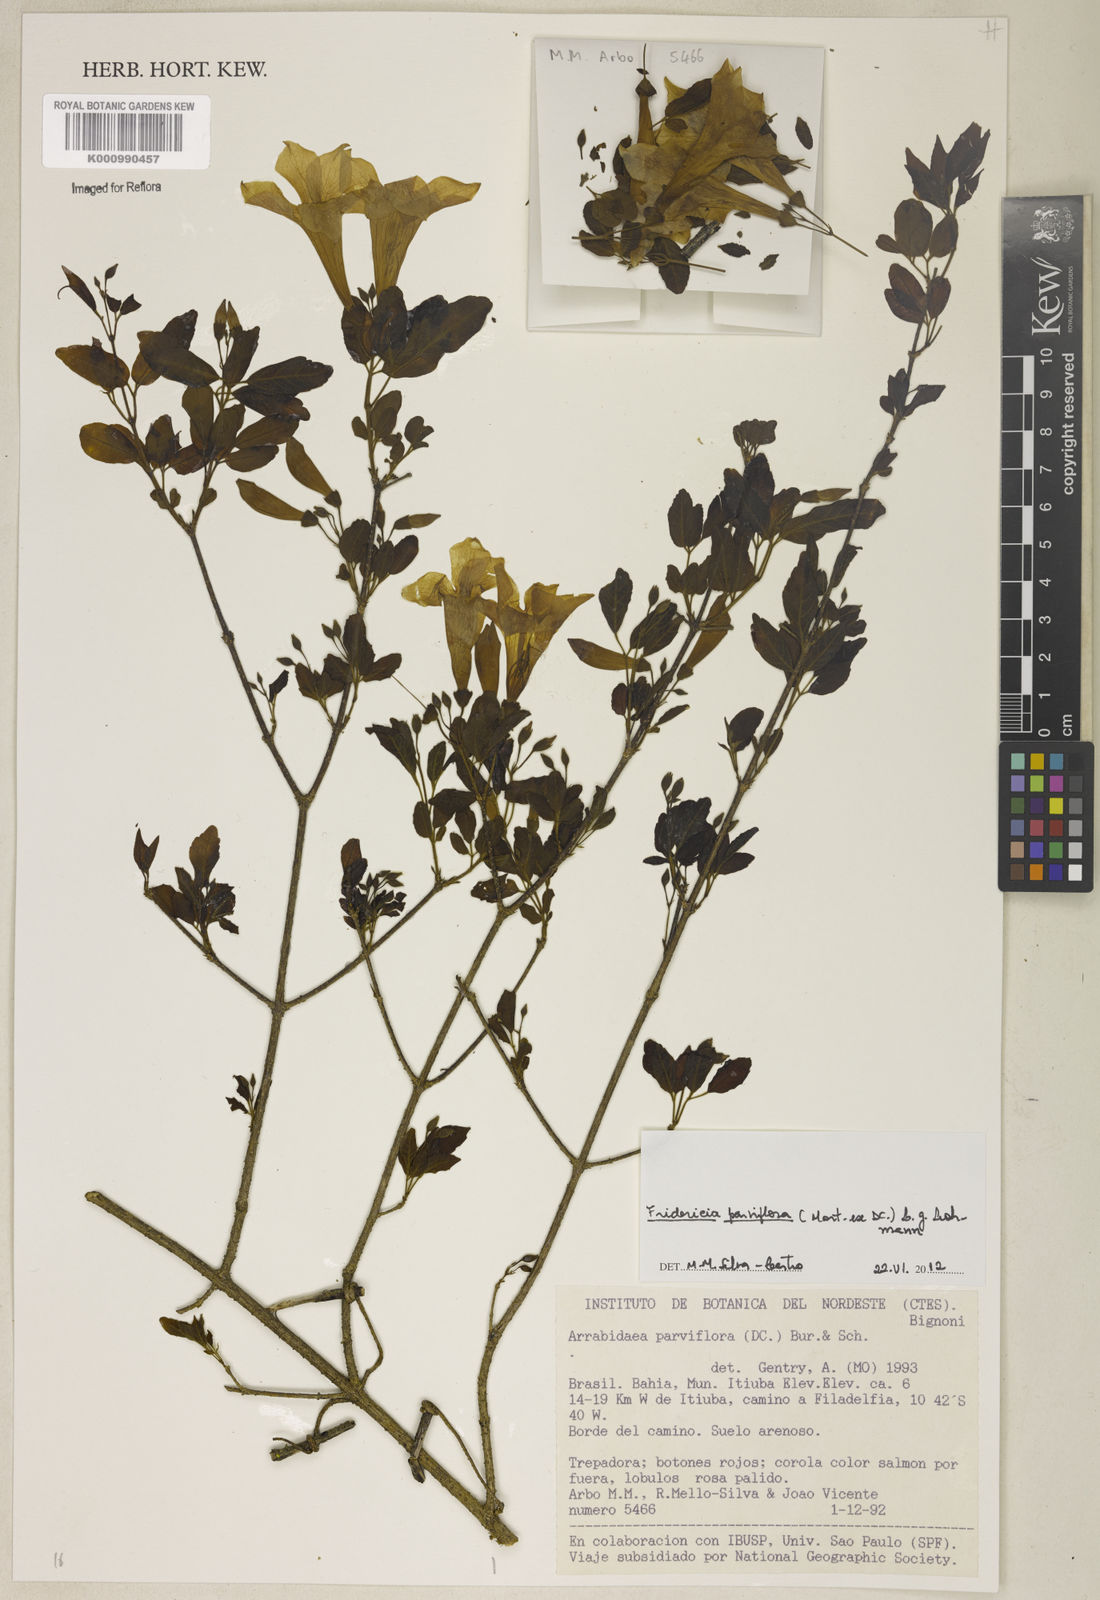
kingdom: Plantae
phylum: Tracheophyta
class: Magnoliopsida
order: Lamiales
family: Bignoniaceae
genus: Tanaecium
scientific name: Tanaecium parviflorum
